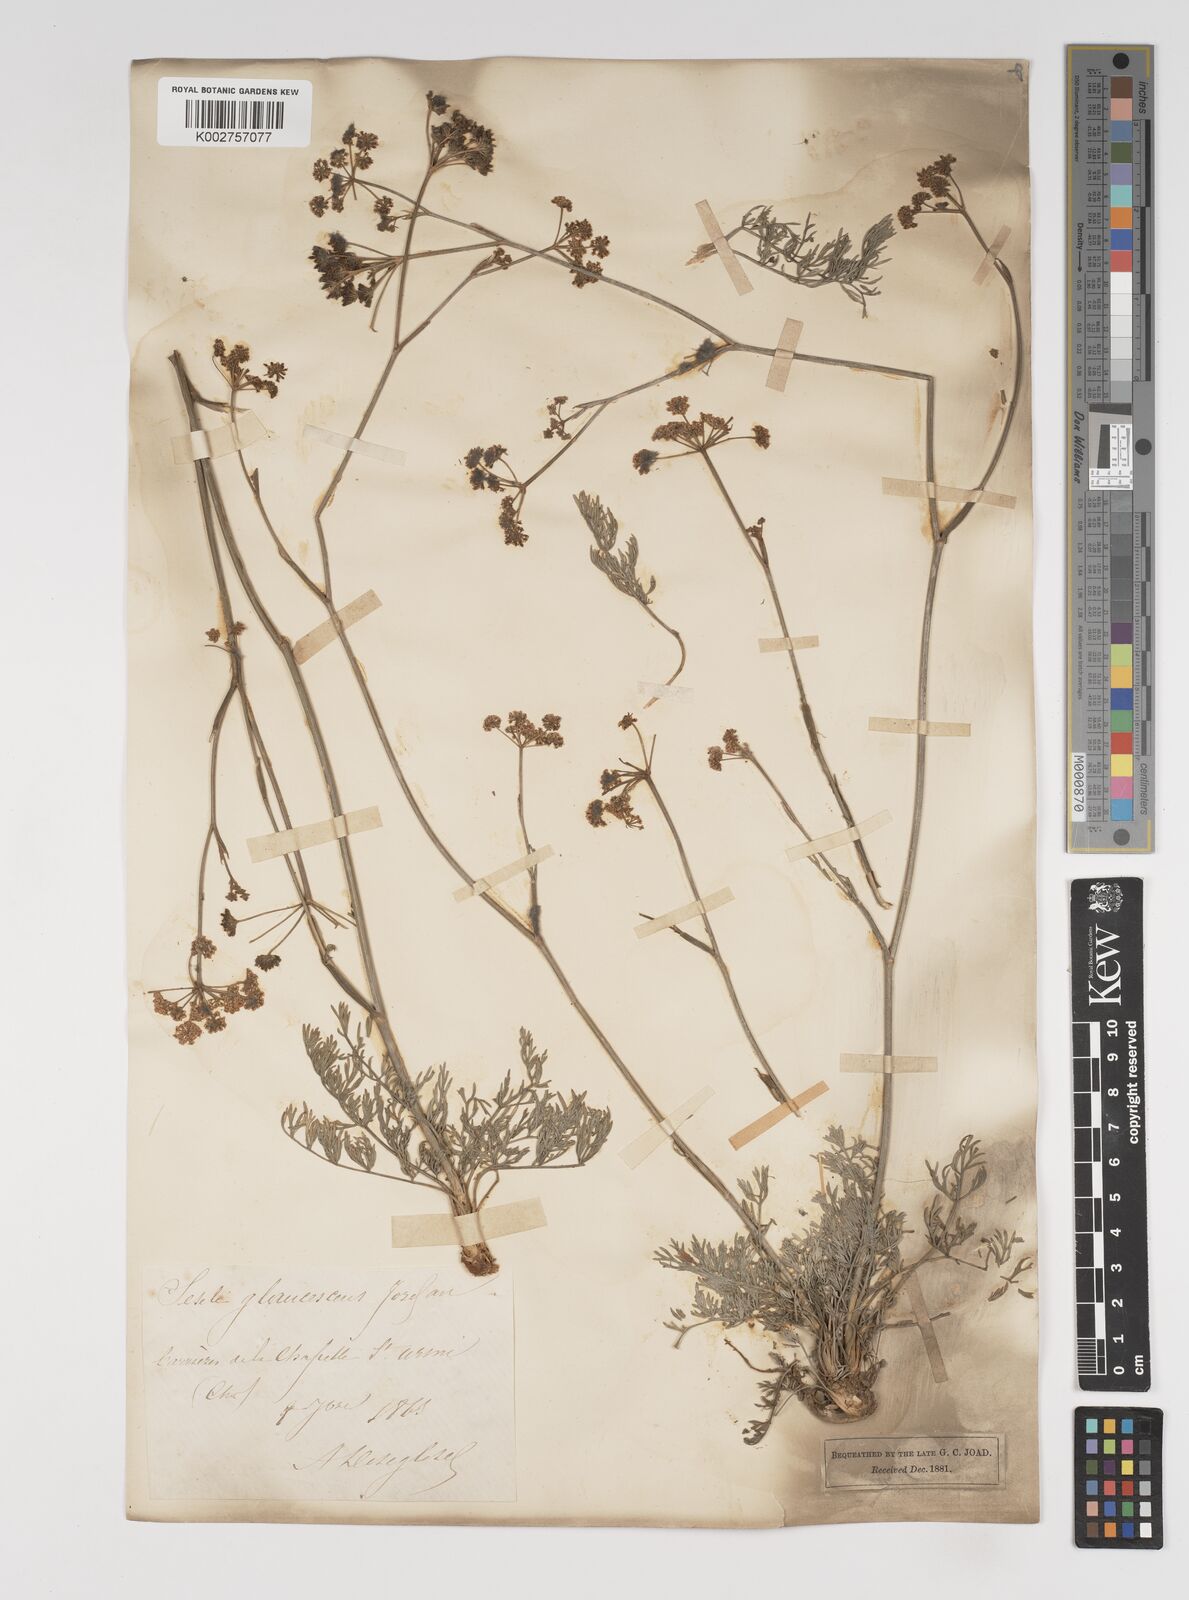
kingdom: Plantae
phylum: Tracheophyta
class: Magnoliopsida
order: Apiales
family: Apiaceae
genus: Seseli
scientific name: Seseli montanum
